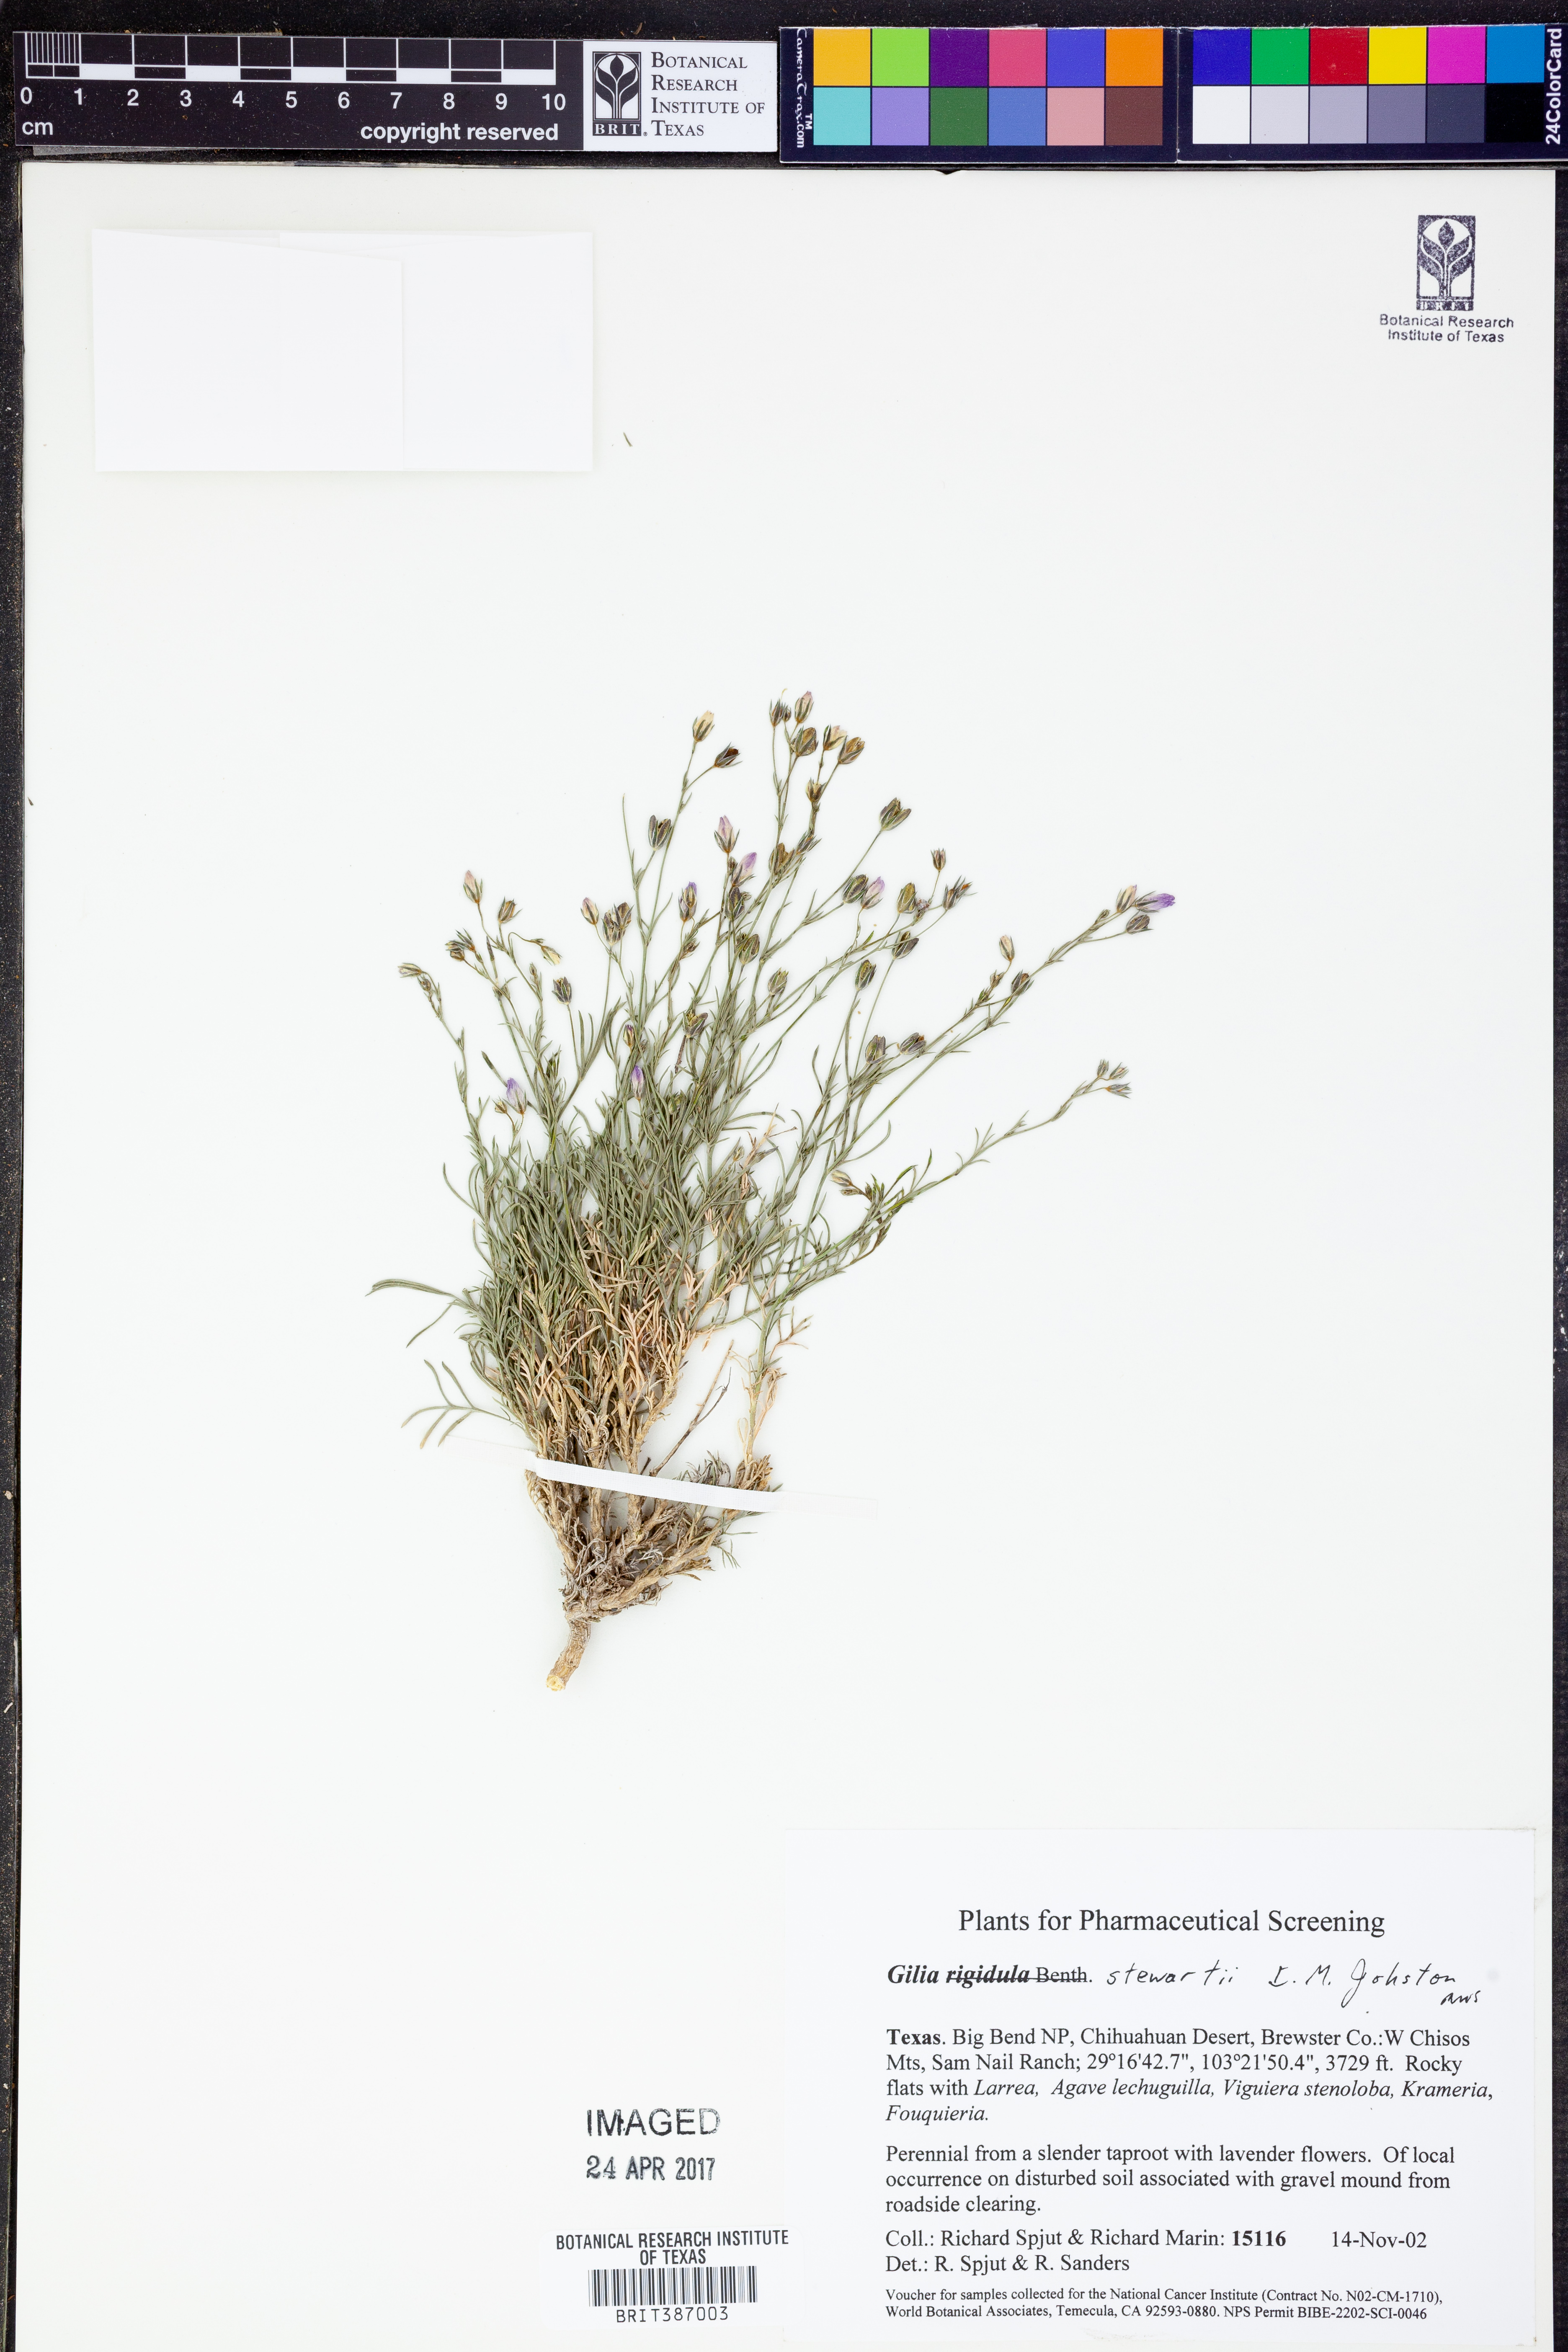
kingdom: Plantae
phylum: Tracheophyta
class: Magnoliopsida
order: Ericales
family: Polemoniaceae
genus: Giliastrum
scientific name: Giliastrum stewartii
